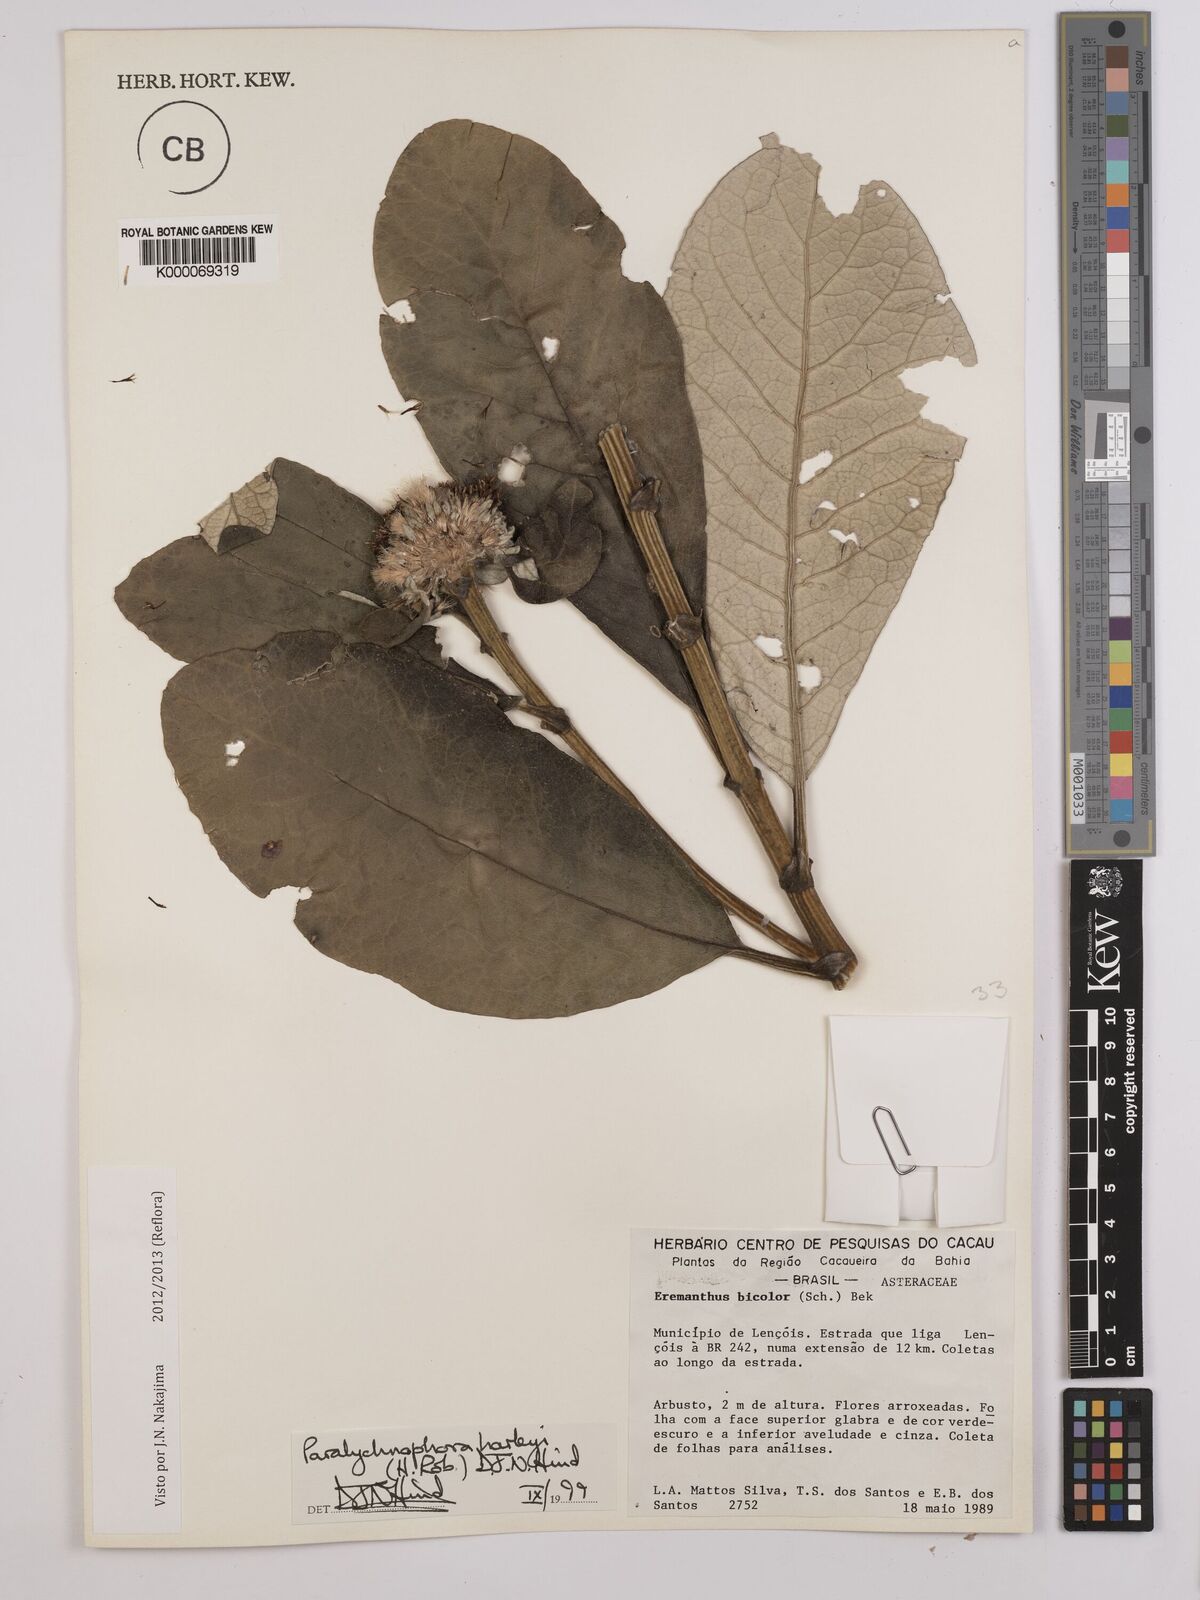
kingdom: Plantae
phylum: Tracheophyta
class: Magnoliopsida
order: Asterales
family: Asteraceae
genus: Paralychnophora
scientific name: Paralychnophora harleyi
